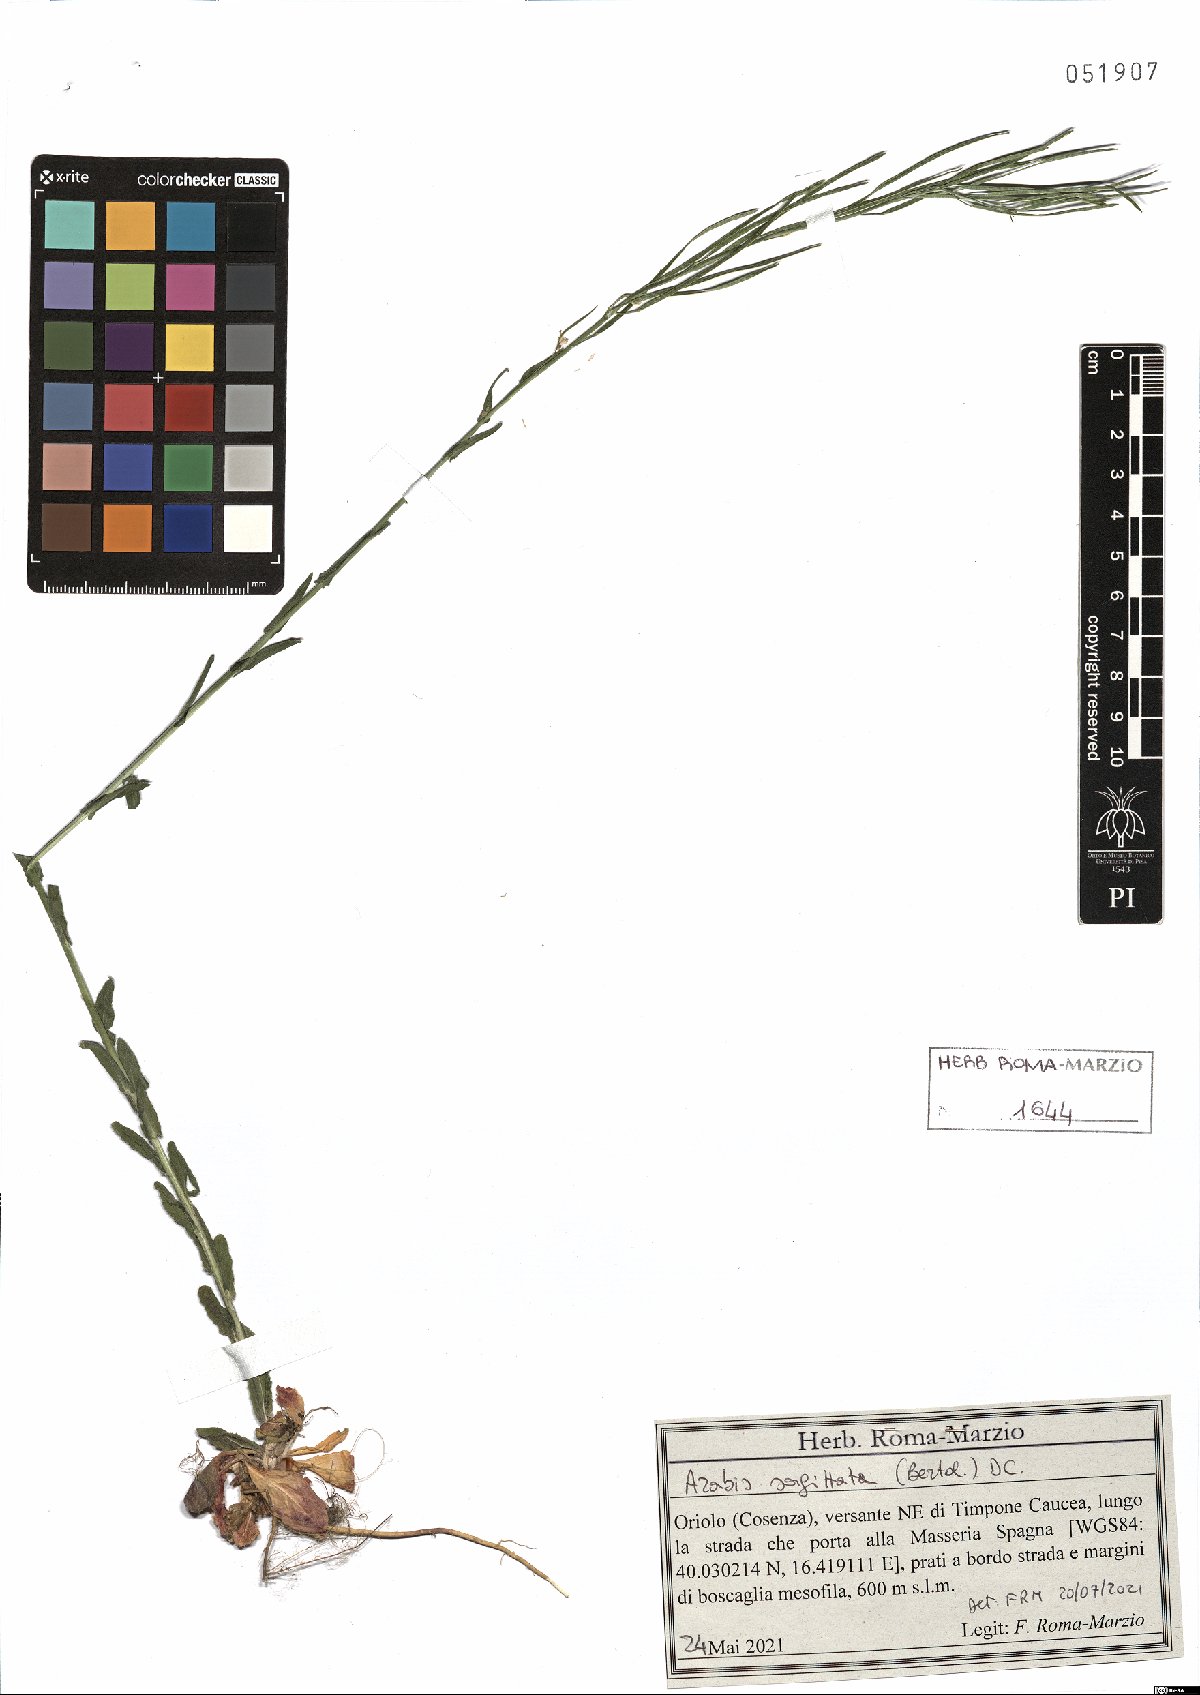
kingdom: Plantae
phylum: Tracheophyta
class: Magnoliopsida
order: Brassicales
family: Brassicaceae
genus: Arabis
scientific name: Arabis sagittata
